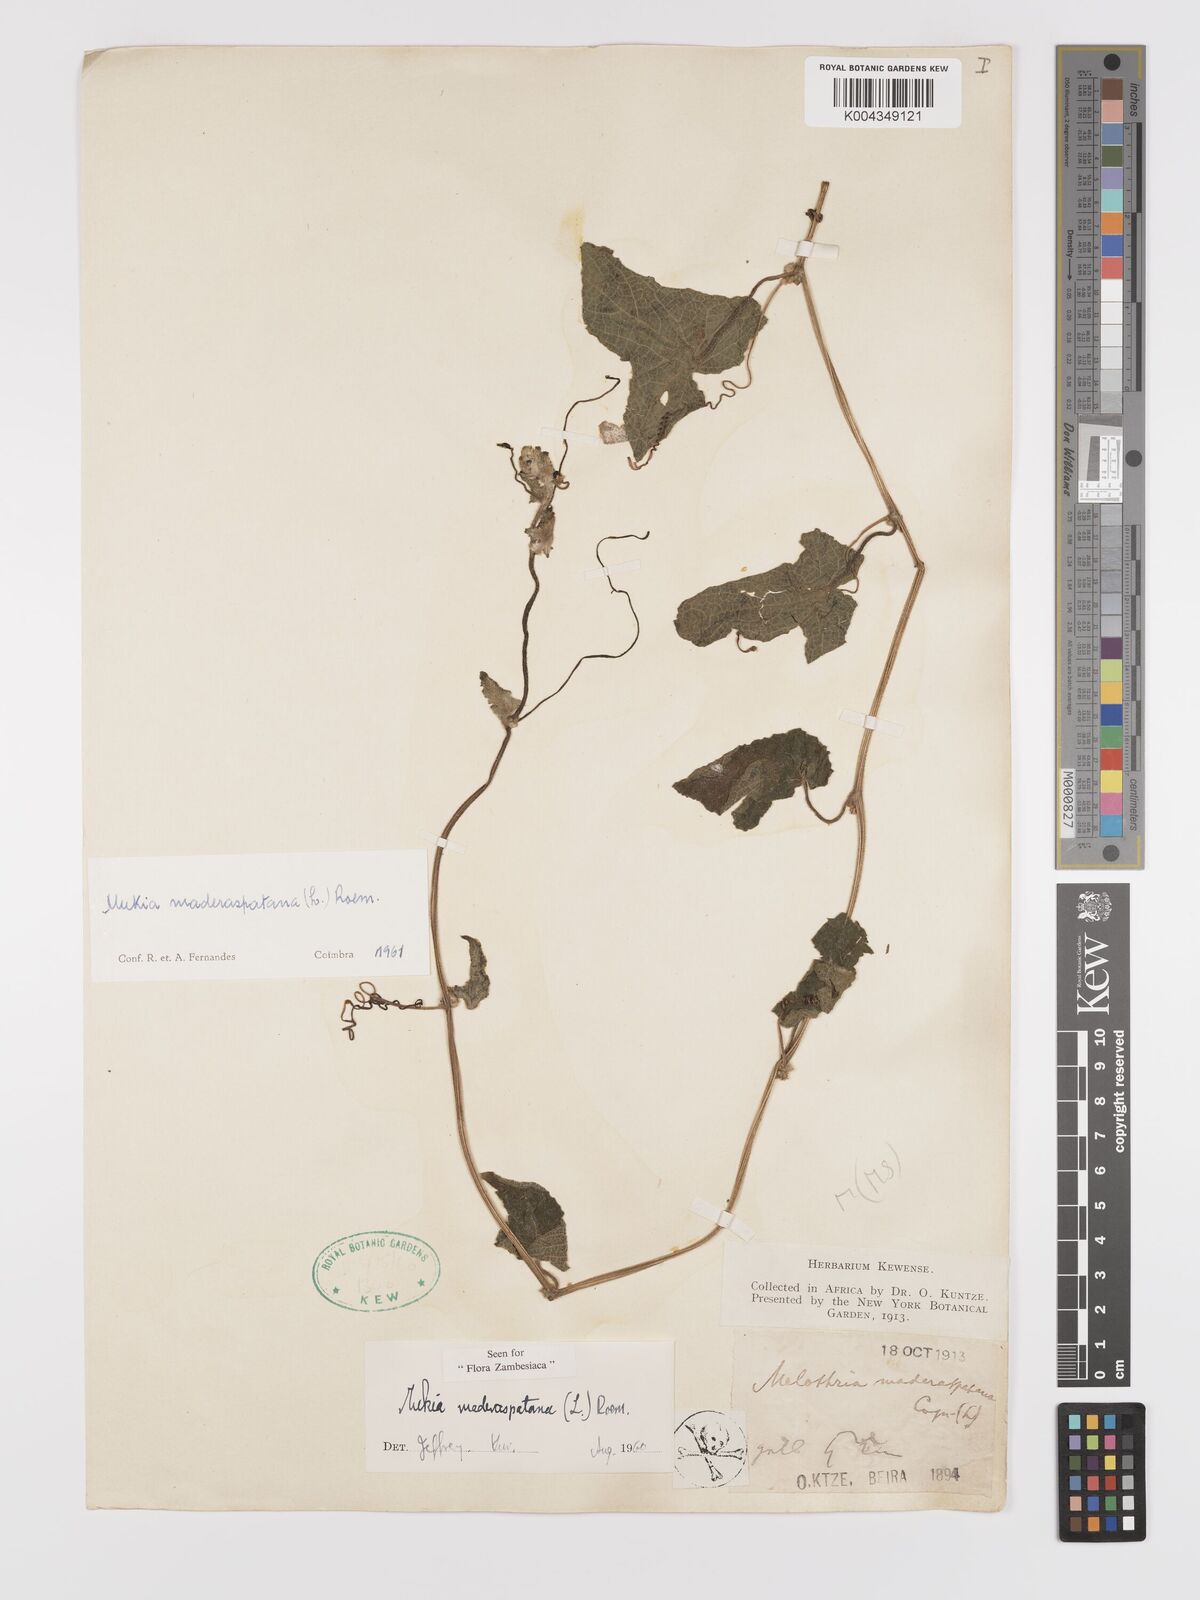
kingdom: Plantae
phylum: Tracheophyta
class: Magnoliopsida
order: Cucurbitales
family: Cucurbitaceae
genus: Cucumis
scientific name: Cucumis maderaspatanus
